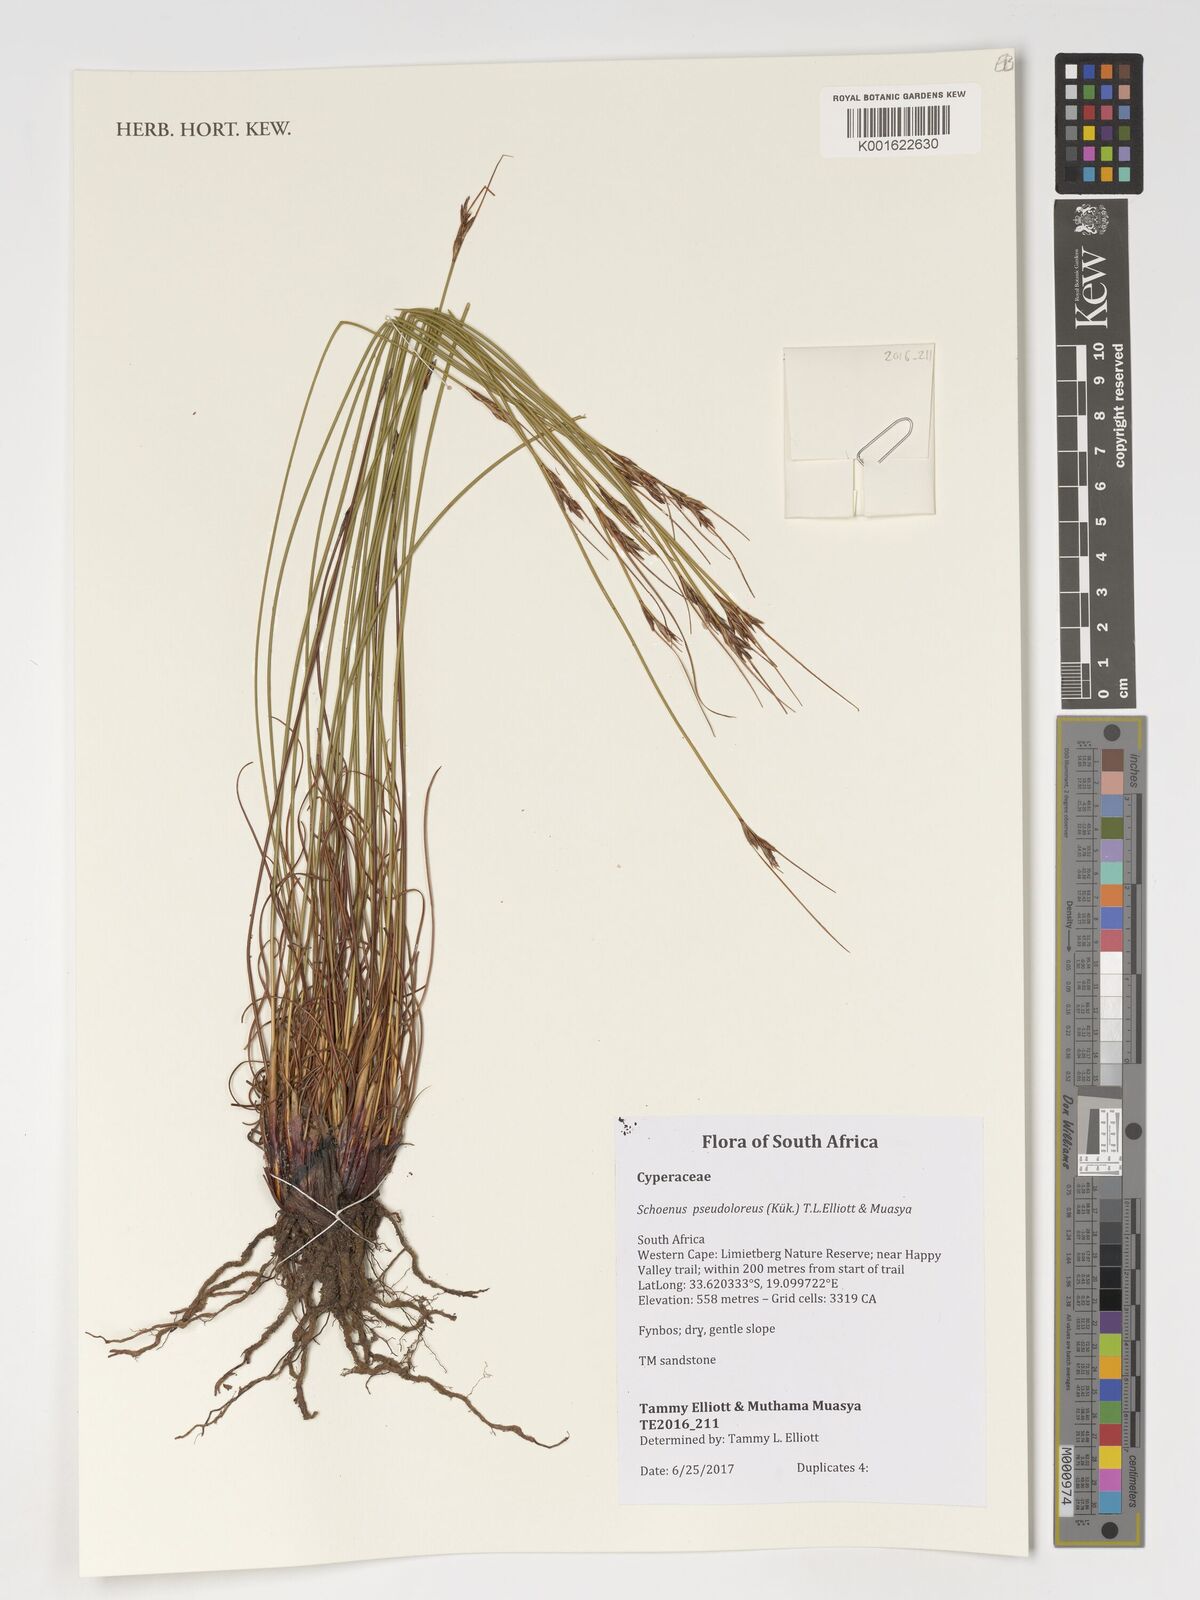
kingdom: Plantae
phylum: Tracheophyta
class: Liliopsida
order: Poales
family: Cyperaceae
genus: Schoenus
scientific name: Schoenus pseudoloreus
